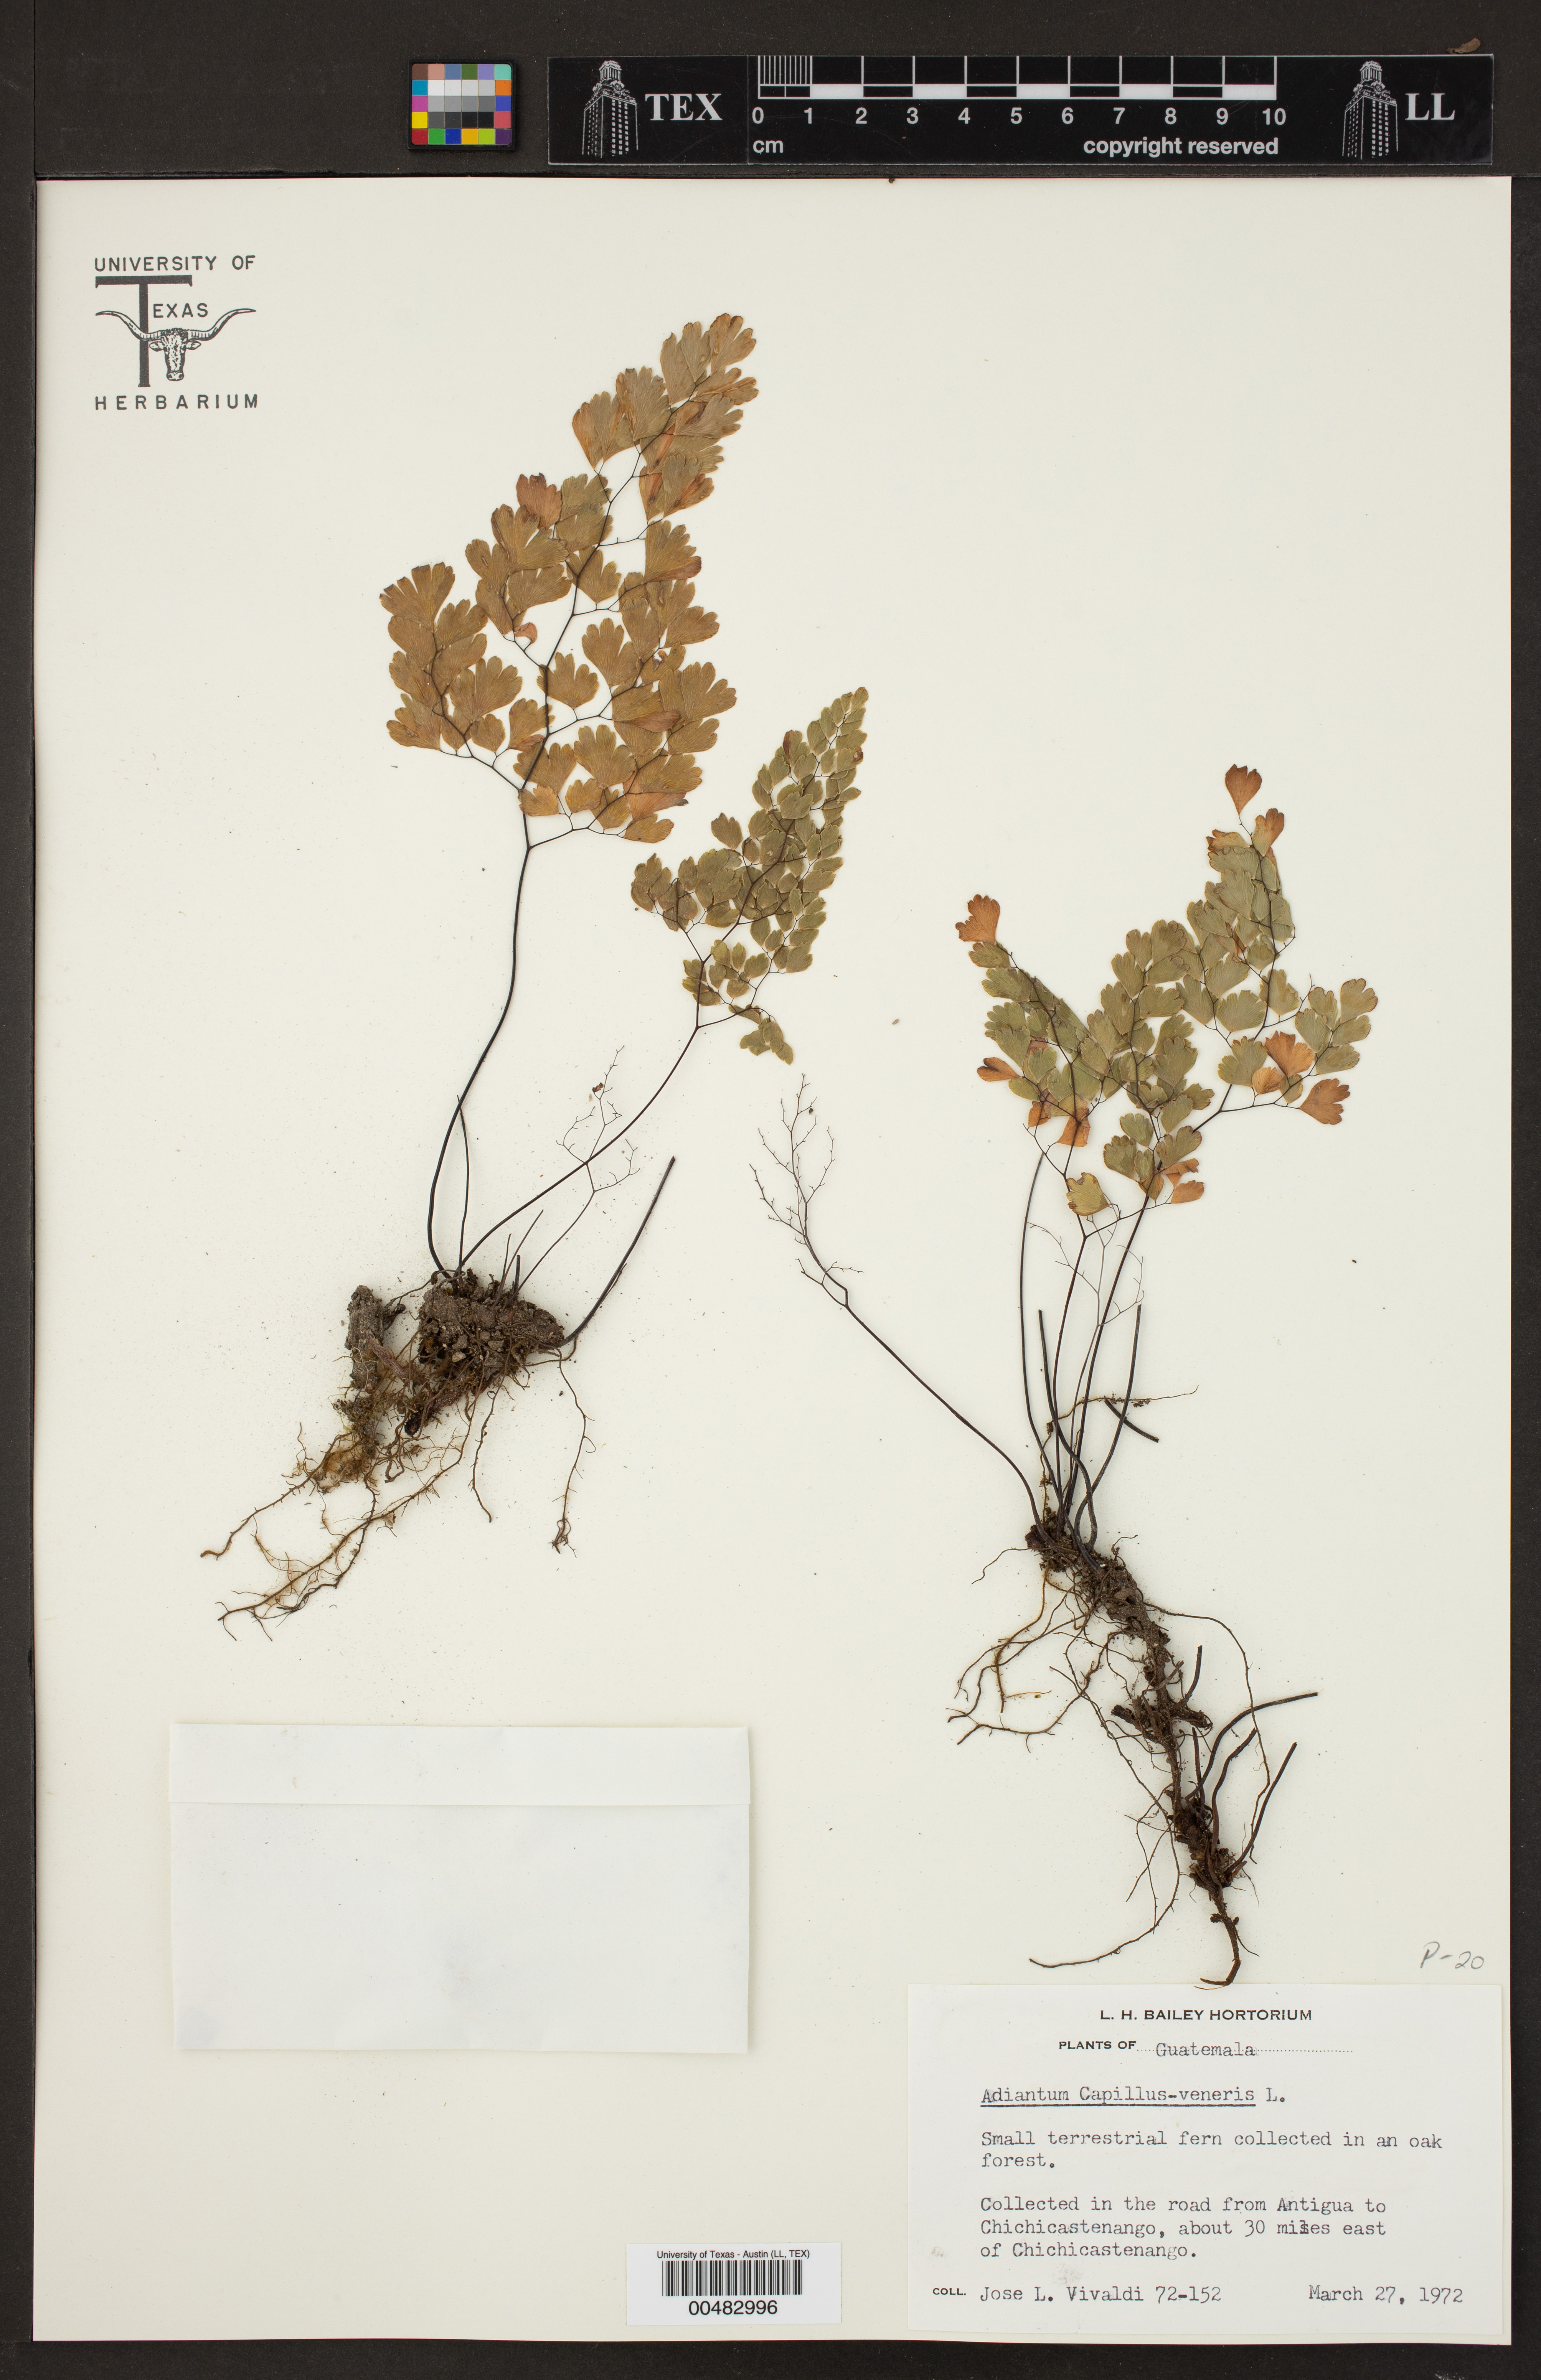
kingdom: Plantae
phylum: Tracheophyta
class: Polypodiopsida
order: Polypodiales
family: Pteridaceae
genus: Adiantum
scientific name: Adiantum capillus-veneris
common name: Maidenhair fern
